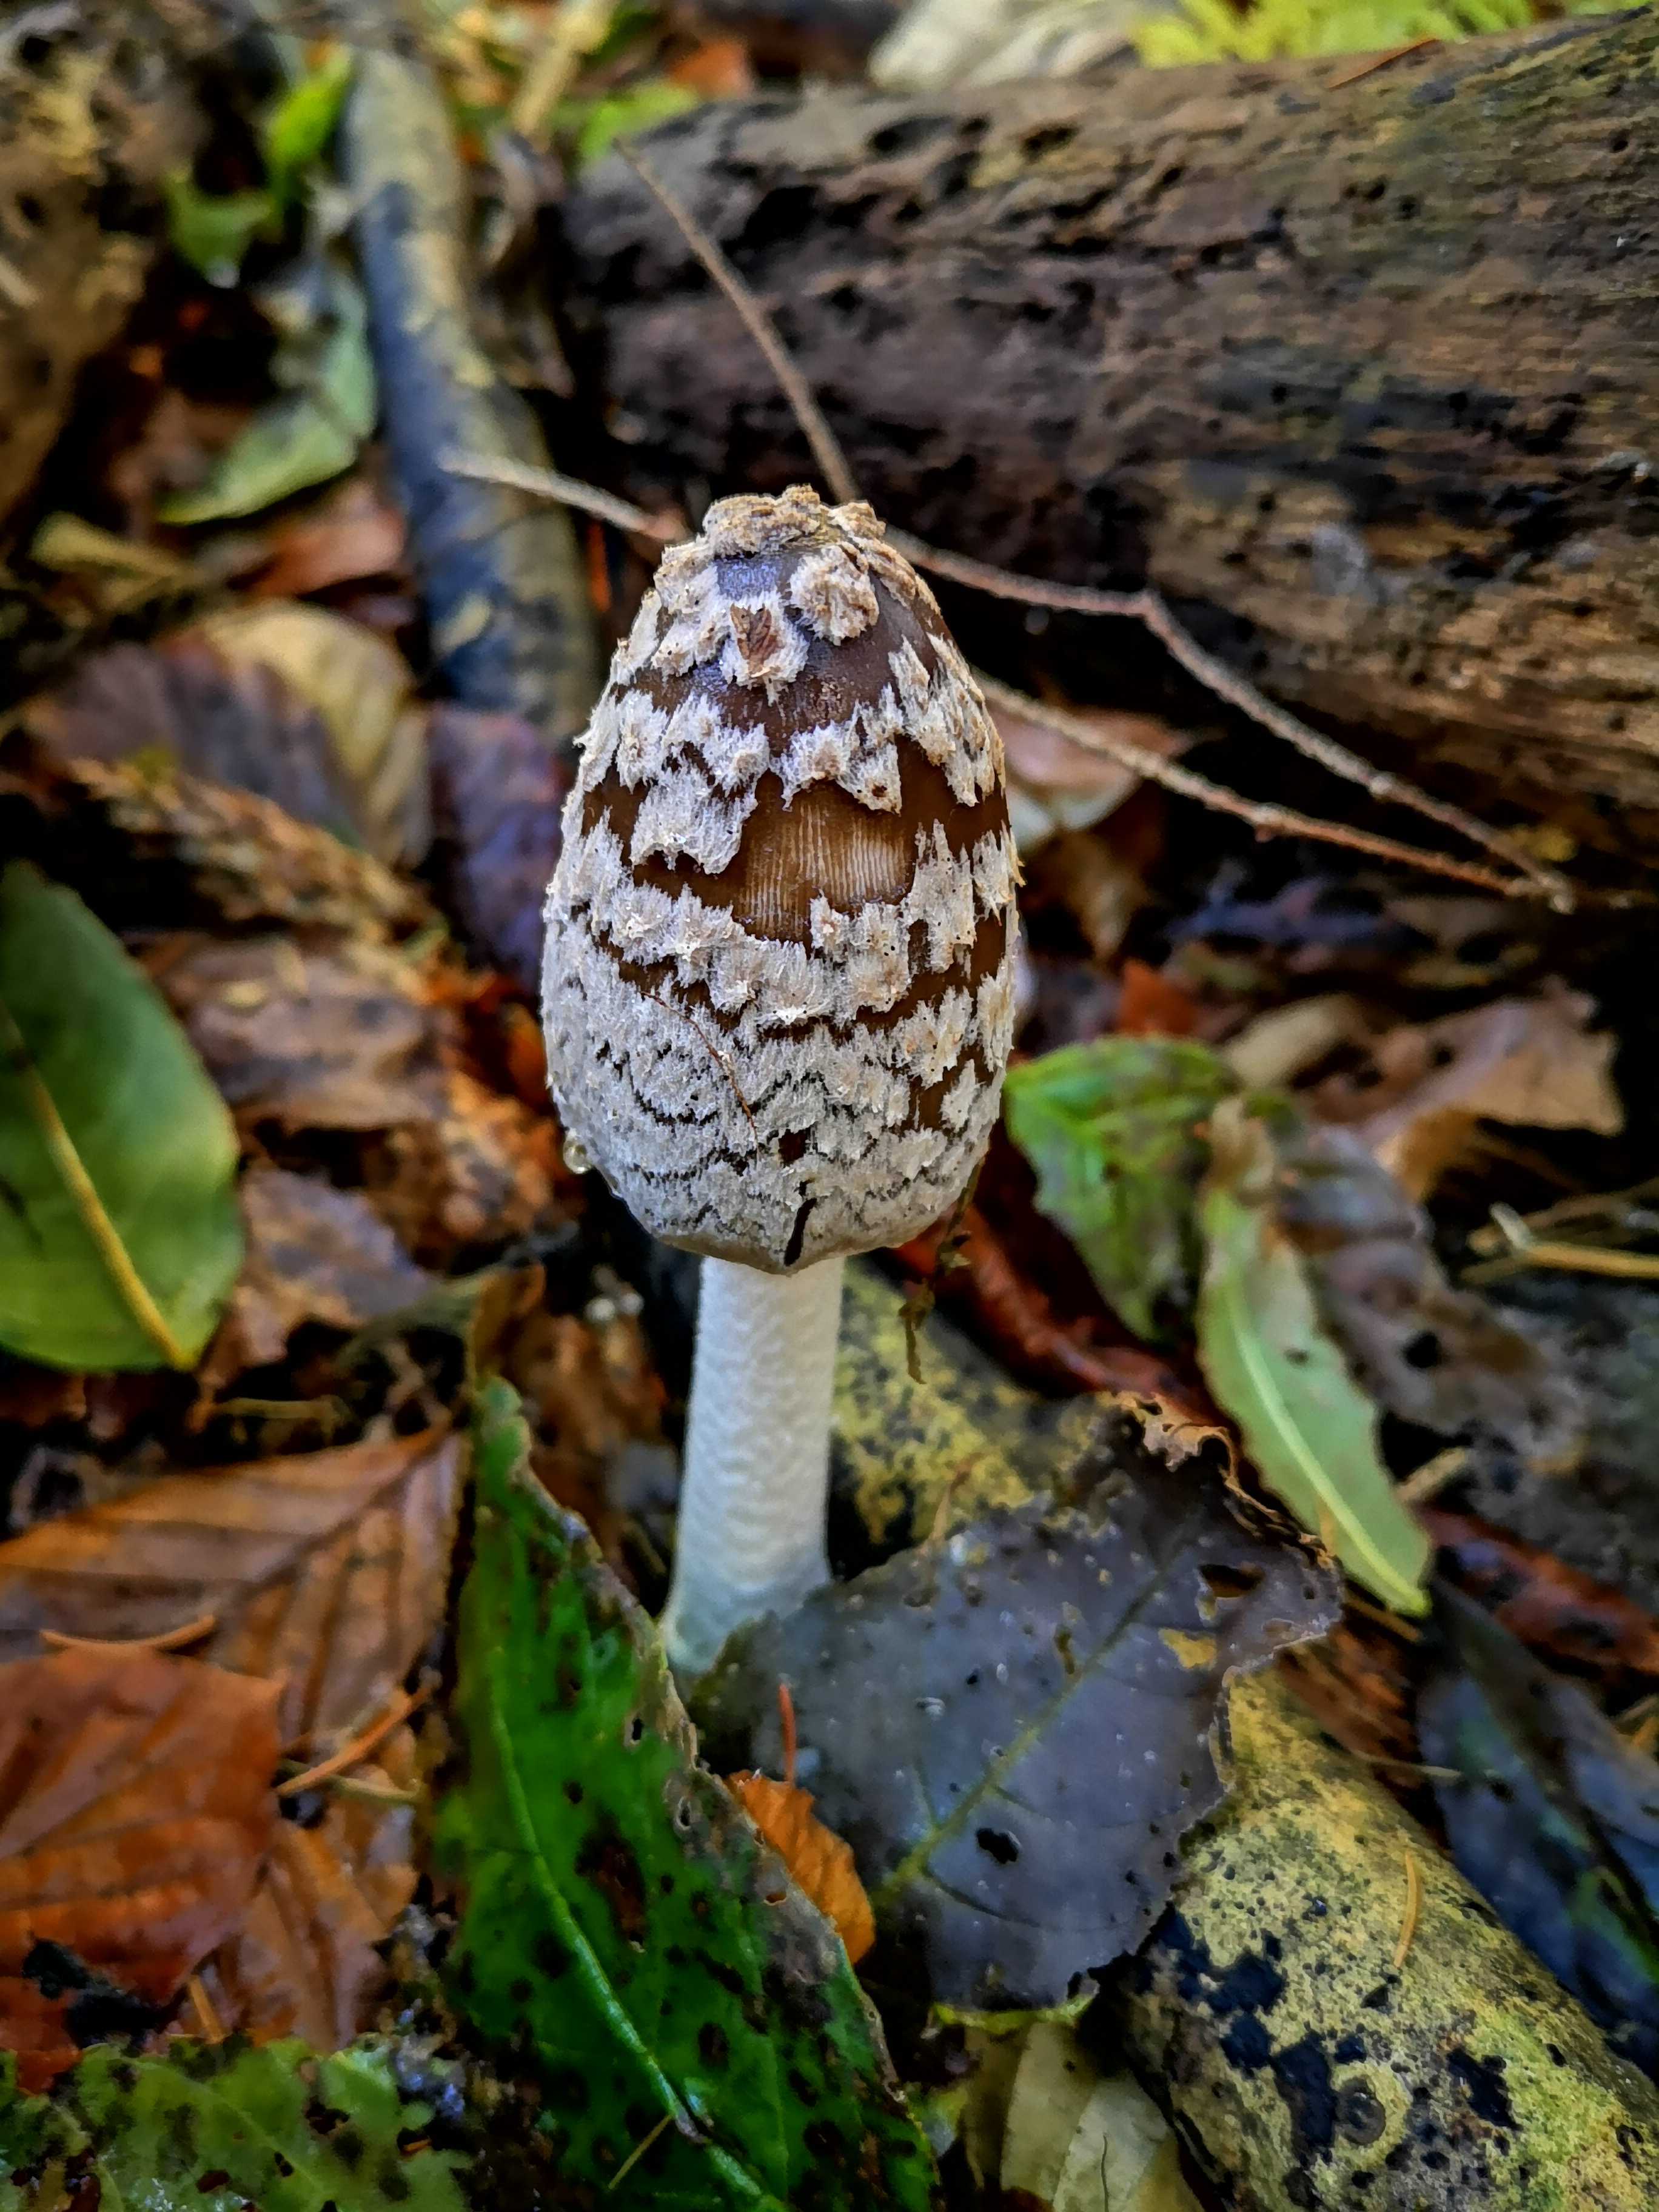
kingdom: Fungi
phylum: Basidiomycota
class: Agaricomycetes
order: Agaricales
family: Psathyrellaceae
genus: Coprinopsis
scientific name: Coprinopsis picacea
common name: skade-blækhat
